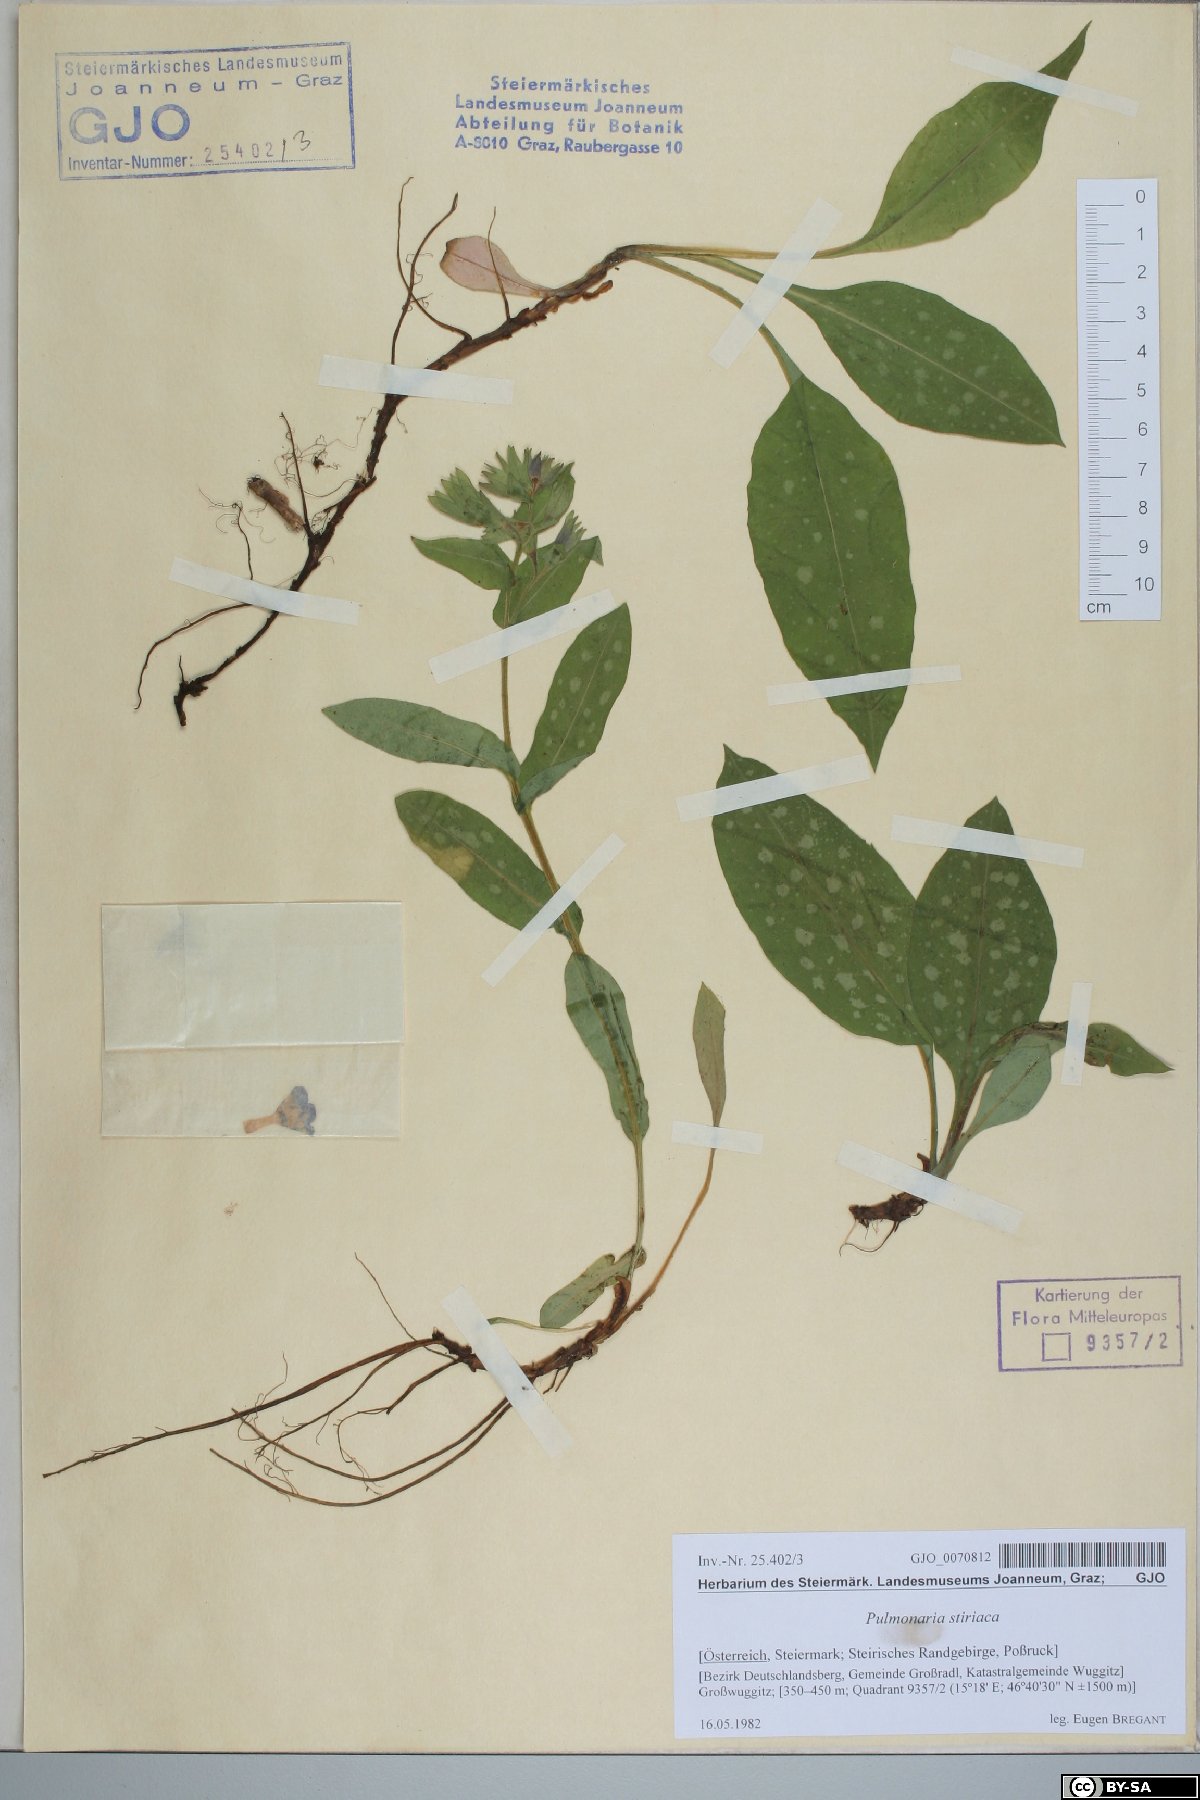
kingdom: Plantae
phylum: Tracheophyta
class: Magnoliopsida
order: Boraginales
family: Boraginaceae
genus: Pulmonaria
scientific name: Pulmonaria stiriaca
